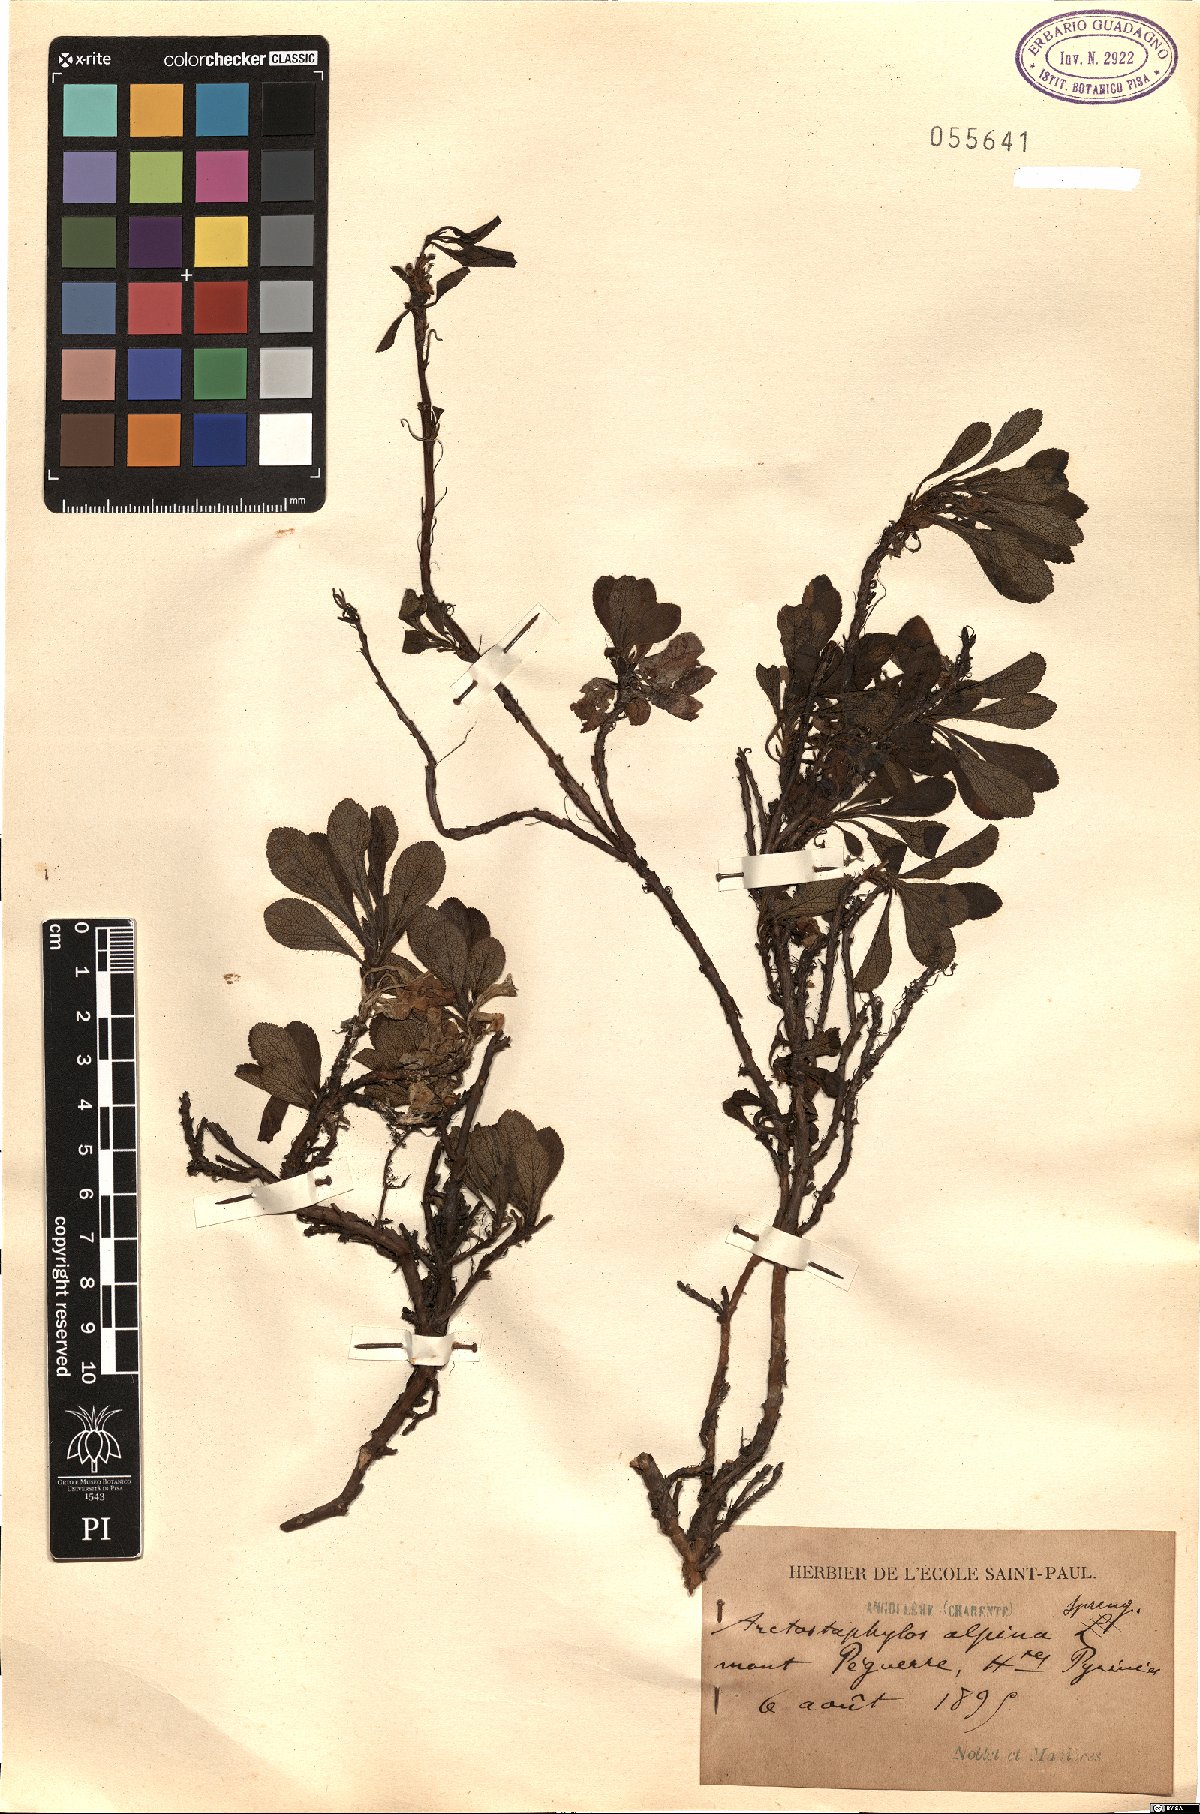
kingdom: Plantae
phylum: Tracheophyta
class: Magnoliopsida
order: Ericales
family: Ericaceae
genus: Arctostaphylos
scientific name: Arctostaphylos alpinus
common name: Alpine bearberry
